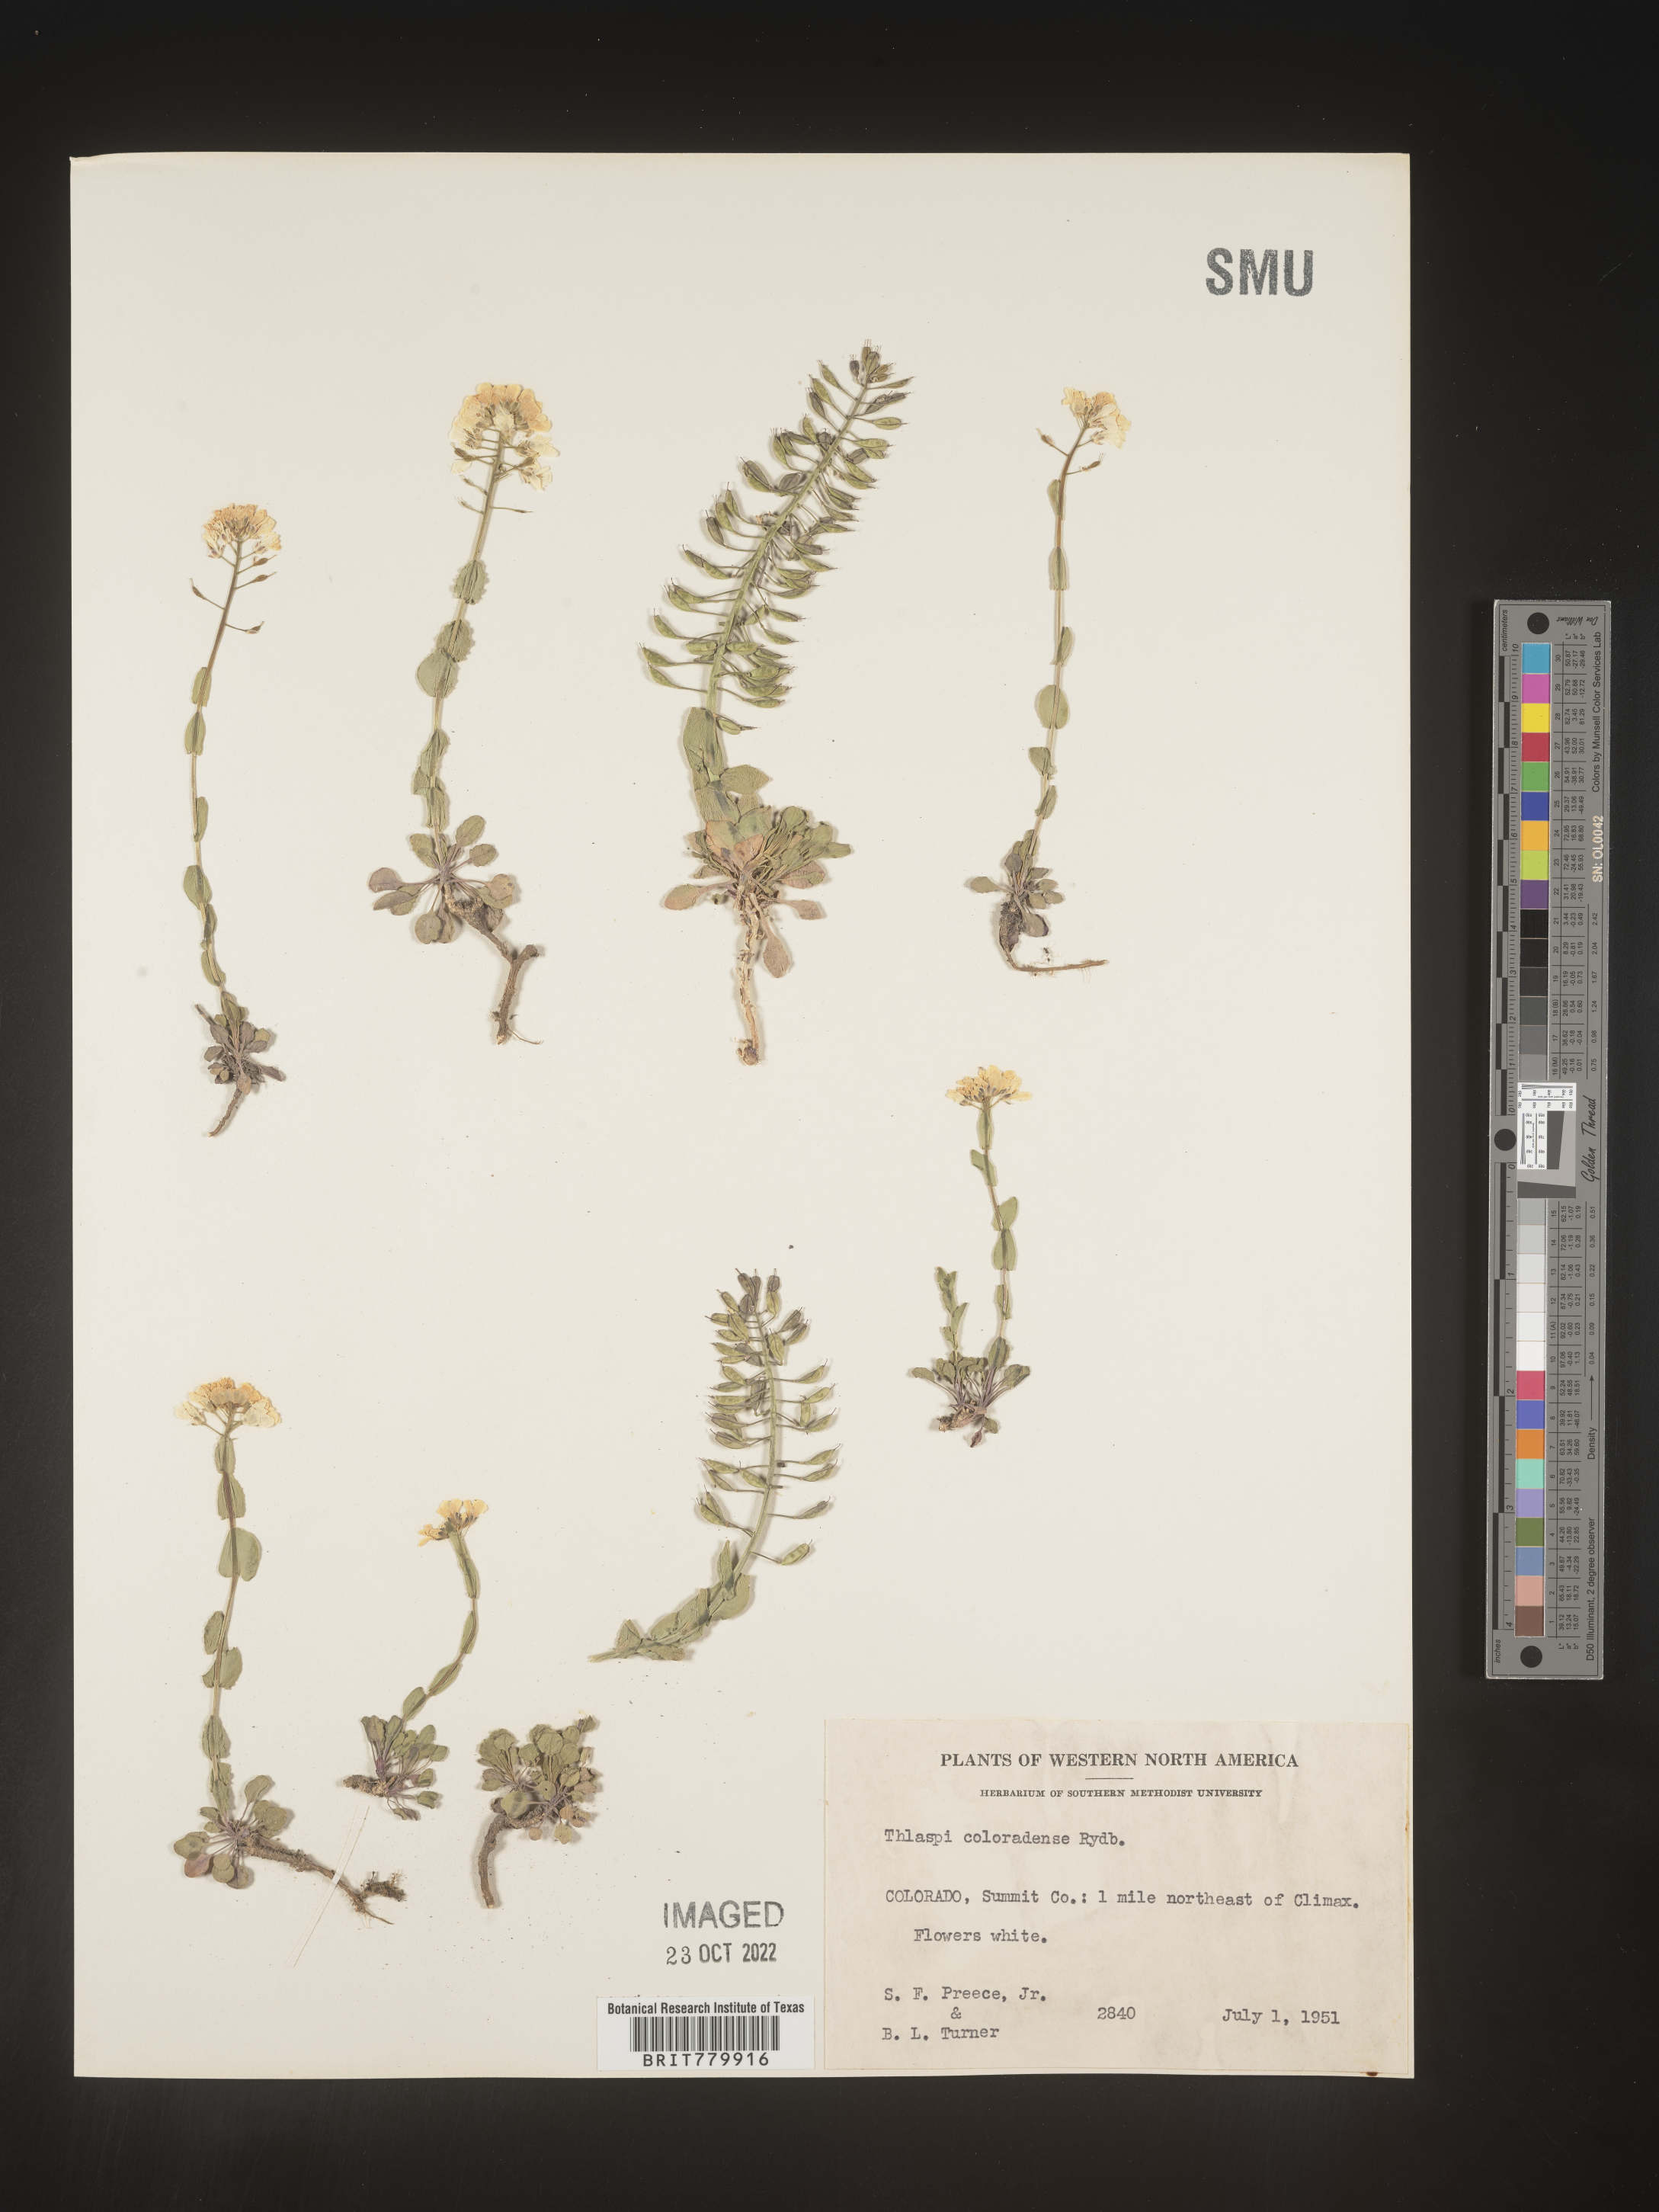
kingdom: Plantae
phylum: Tracheophyta
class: Magnoliopsida
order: Brassicales
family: Brassicaceae
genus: Thlaspi
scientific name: Thlaspi
